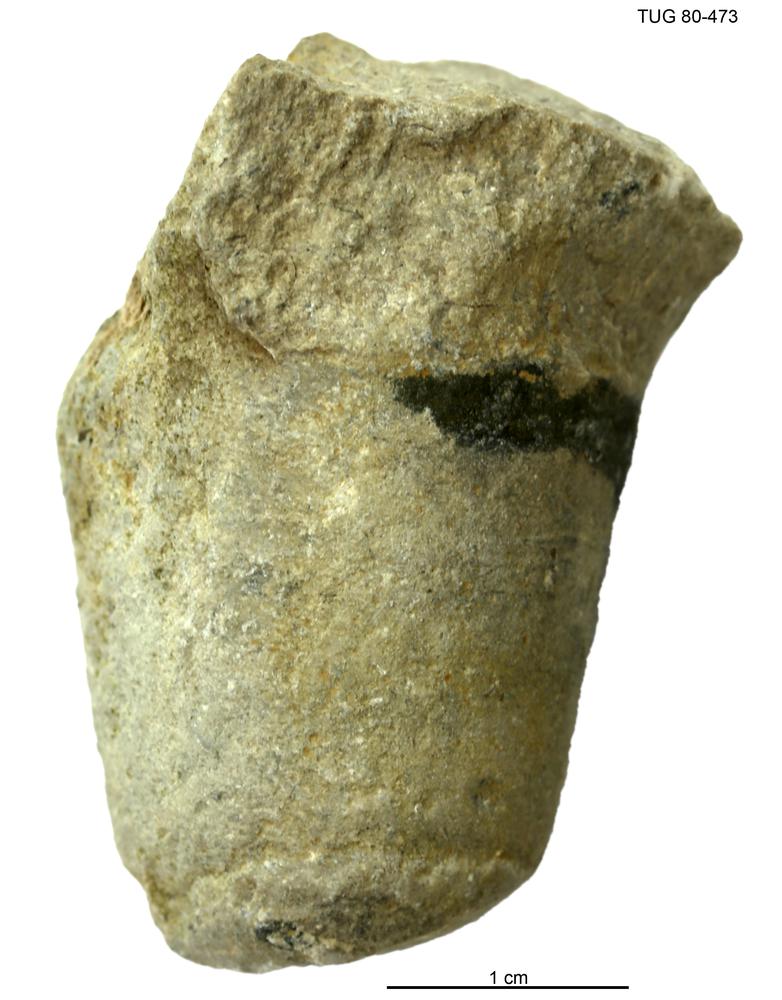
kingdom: Animalia
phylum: Mollusca
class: Cephalopoda
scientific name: Cephalopoda
